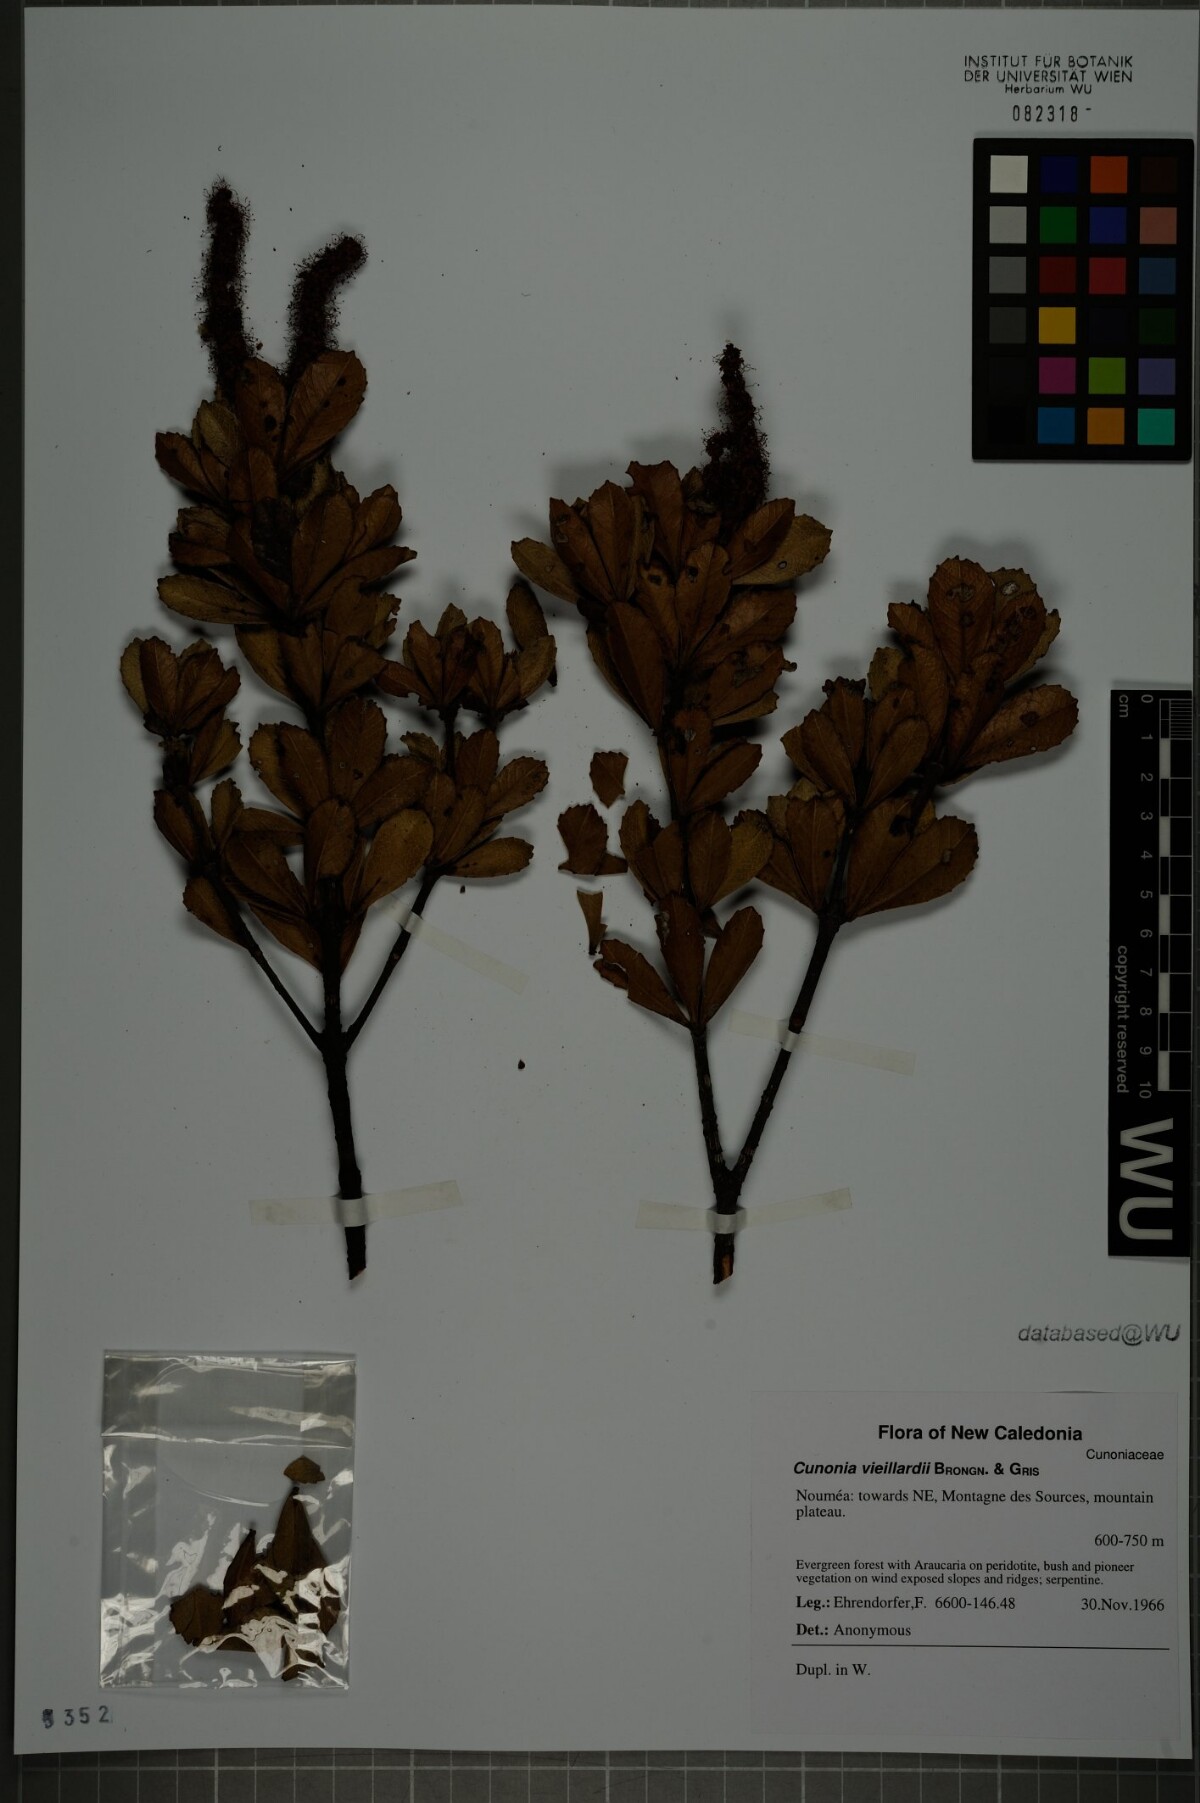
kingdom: Plantae
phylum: Tracheophyta
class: Magnoliopsida
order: Oxalidales
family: Cunoniaceae
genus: Cunonia
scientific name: Cunonia vieillardii
